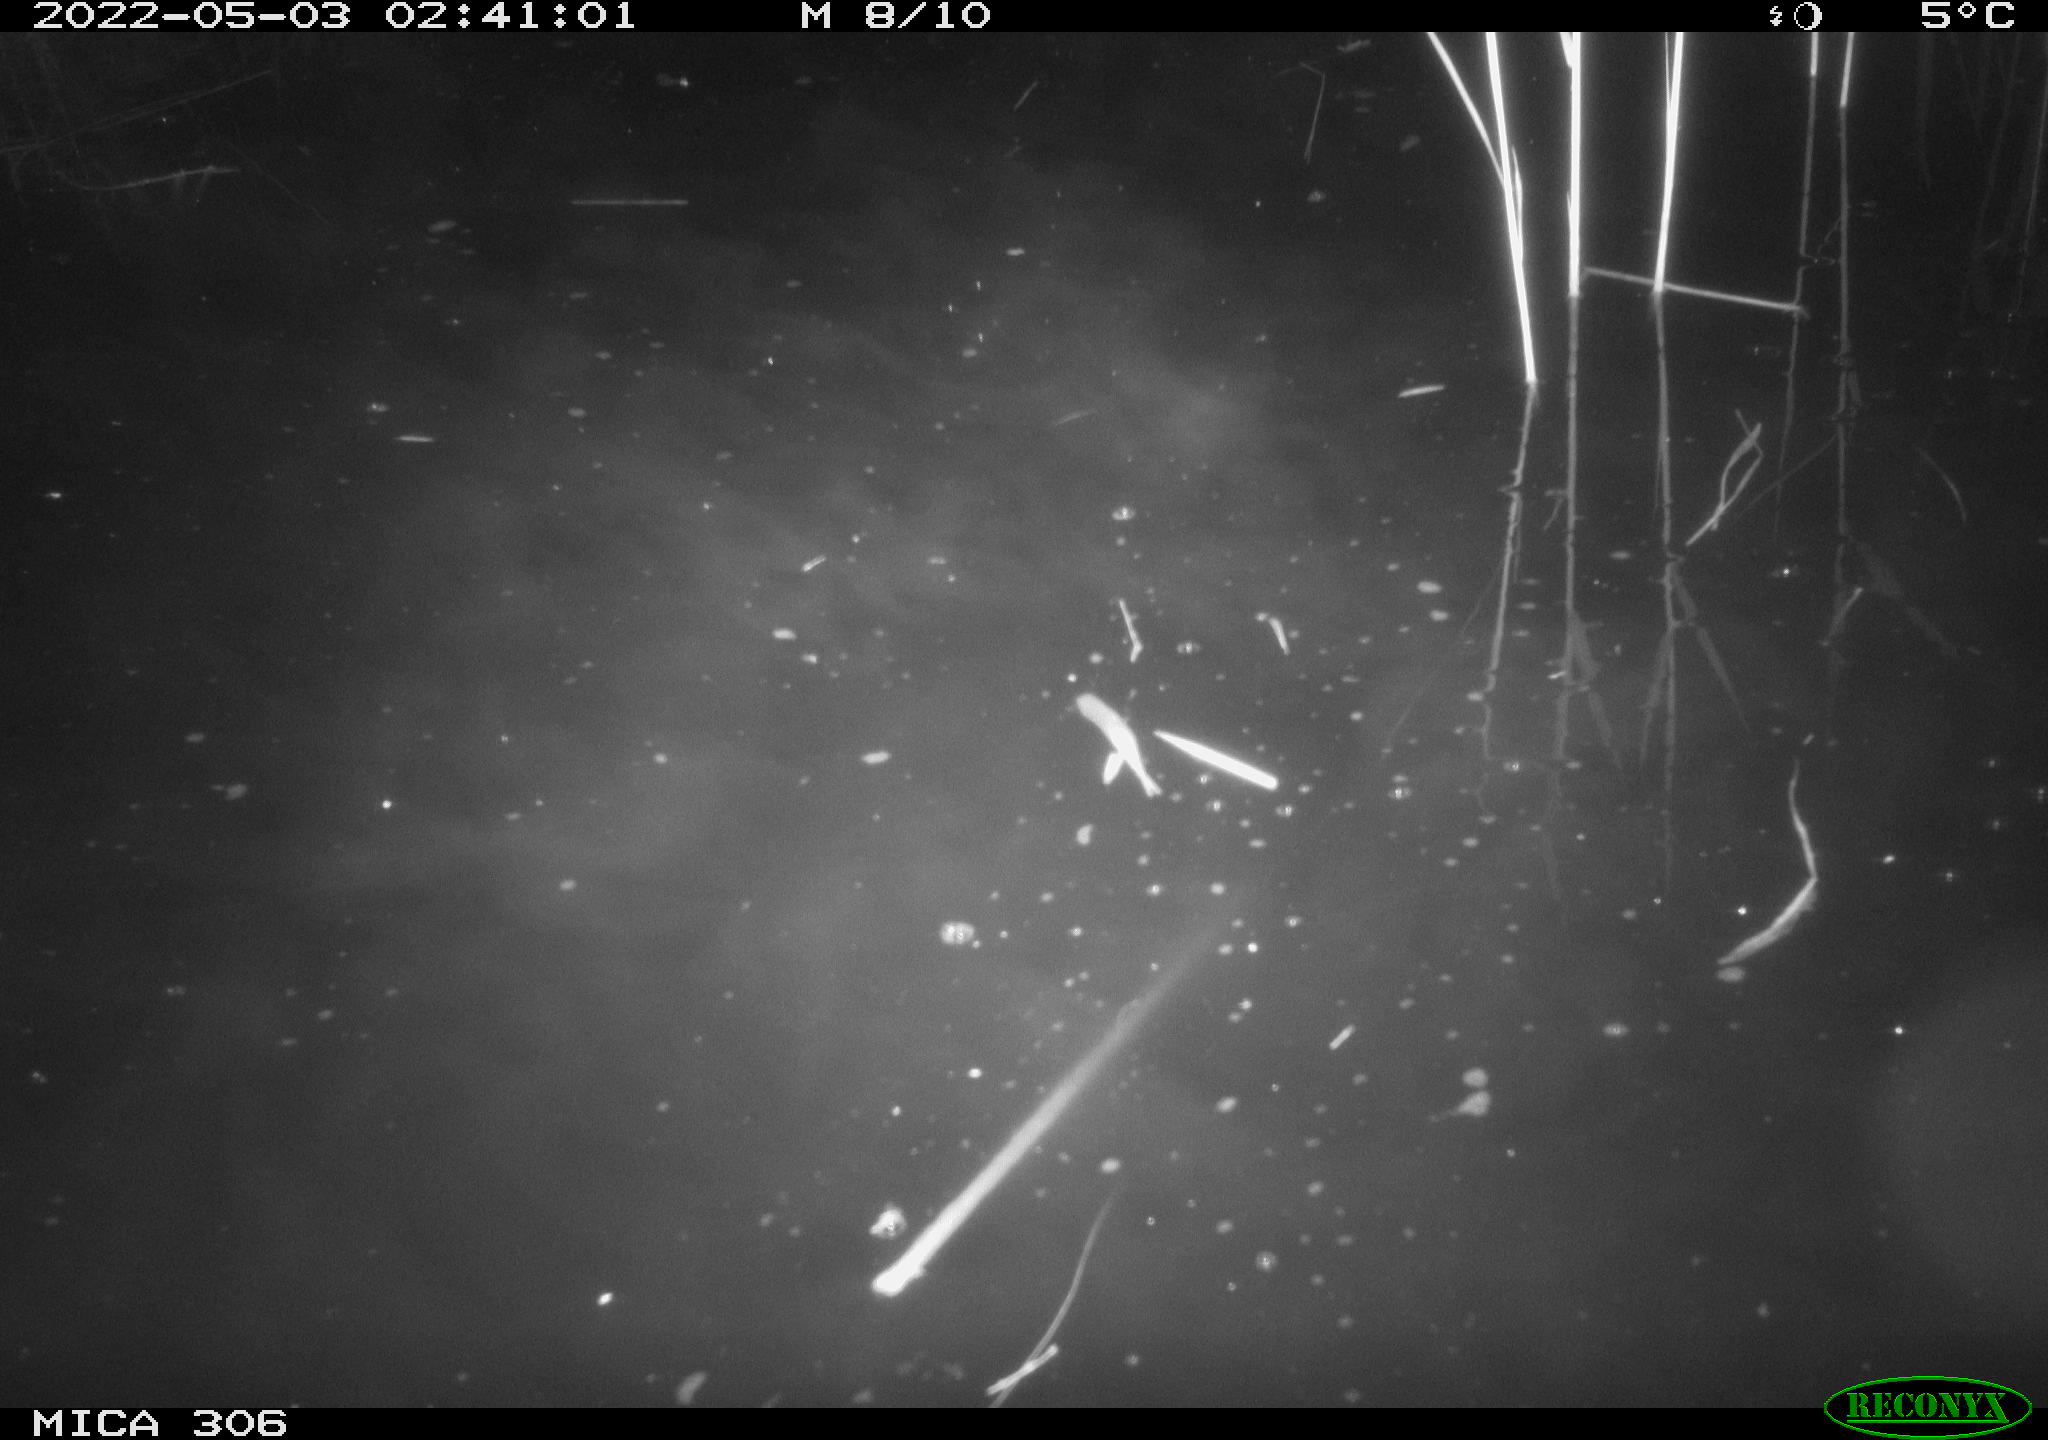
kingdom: Animalia
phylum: Chordata
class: Aves
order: Gruiformes
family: Rallidae
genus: Gallinula
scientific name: Gallinula chloropus
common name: Common moorhen
